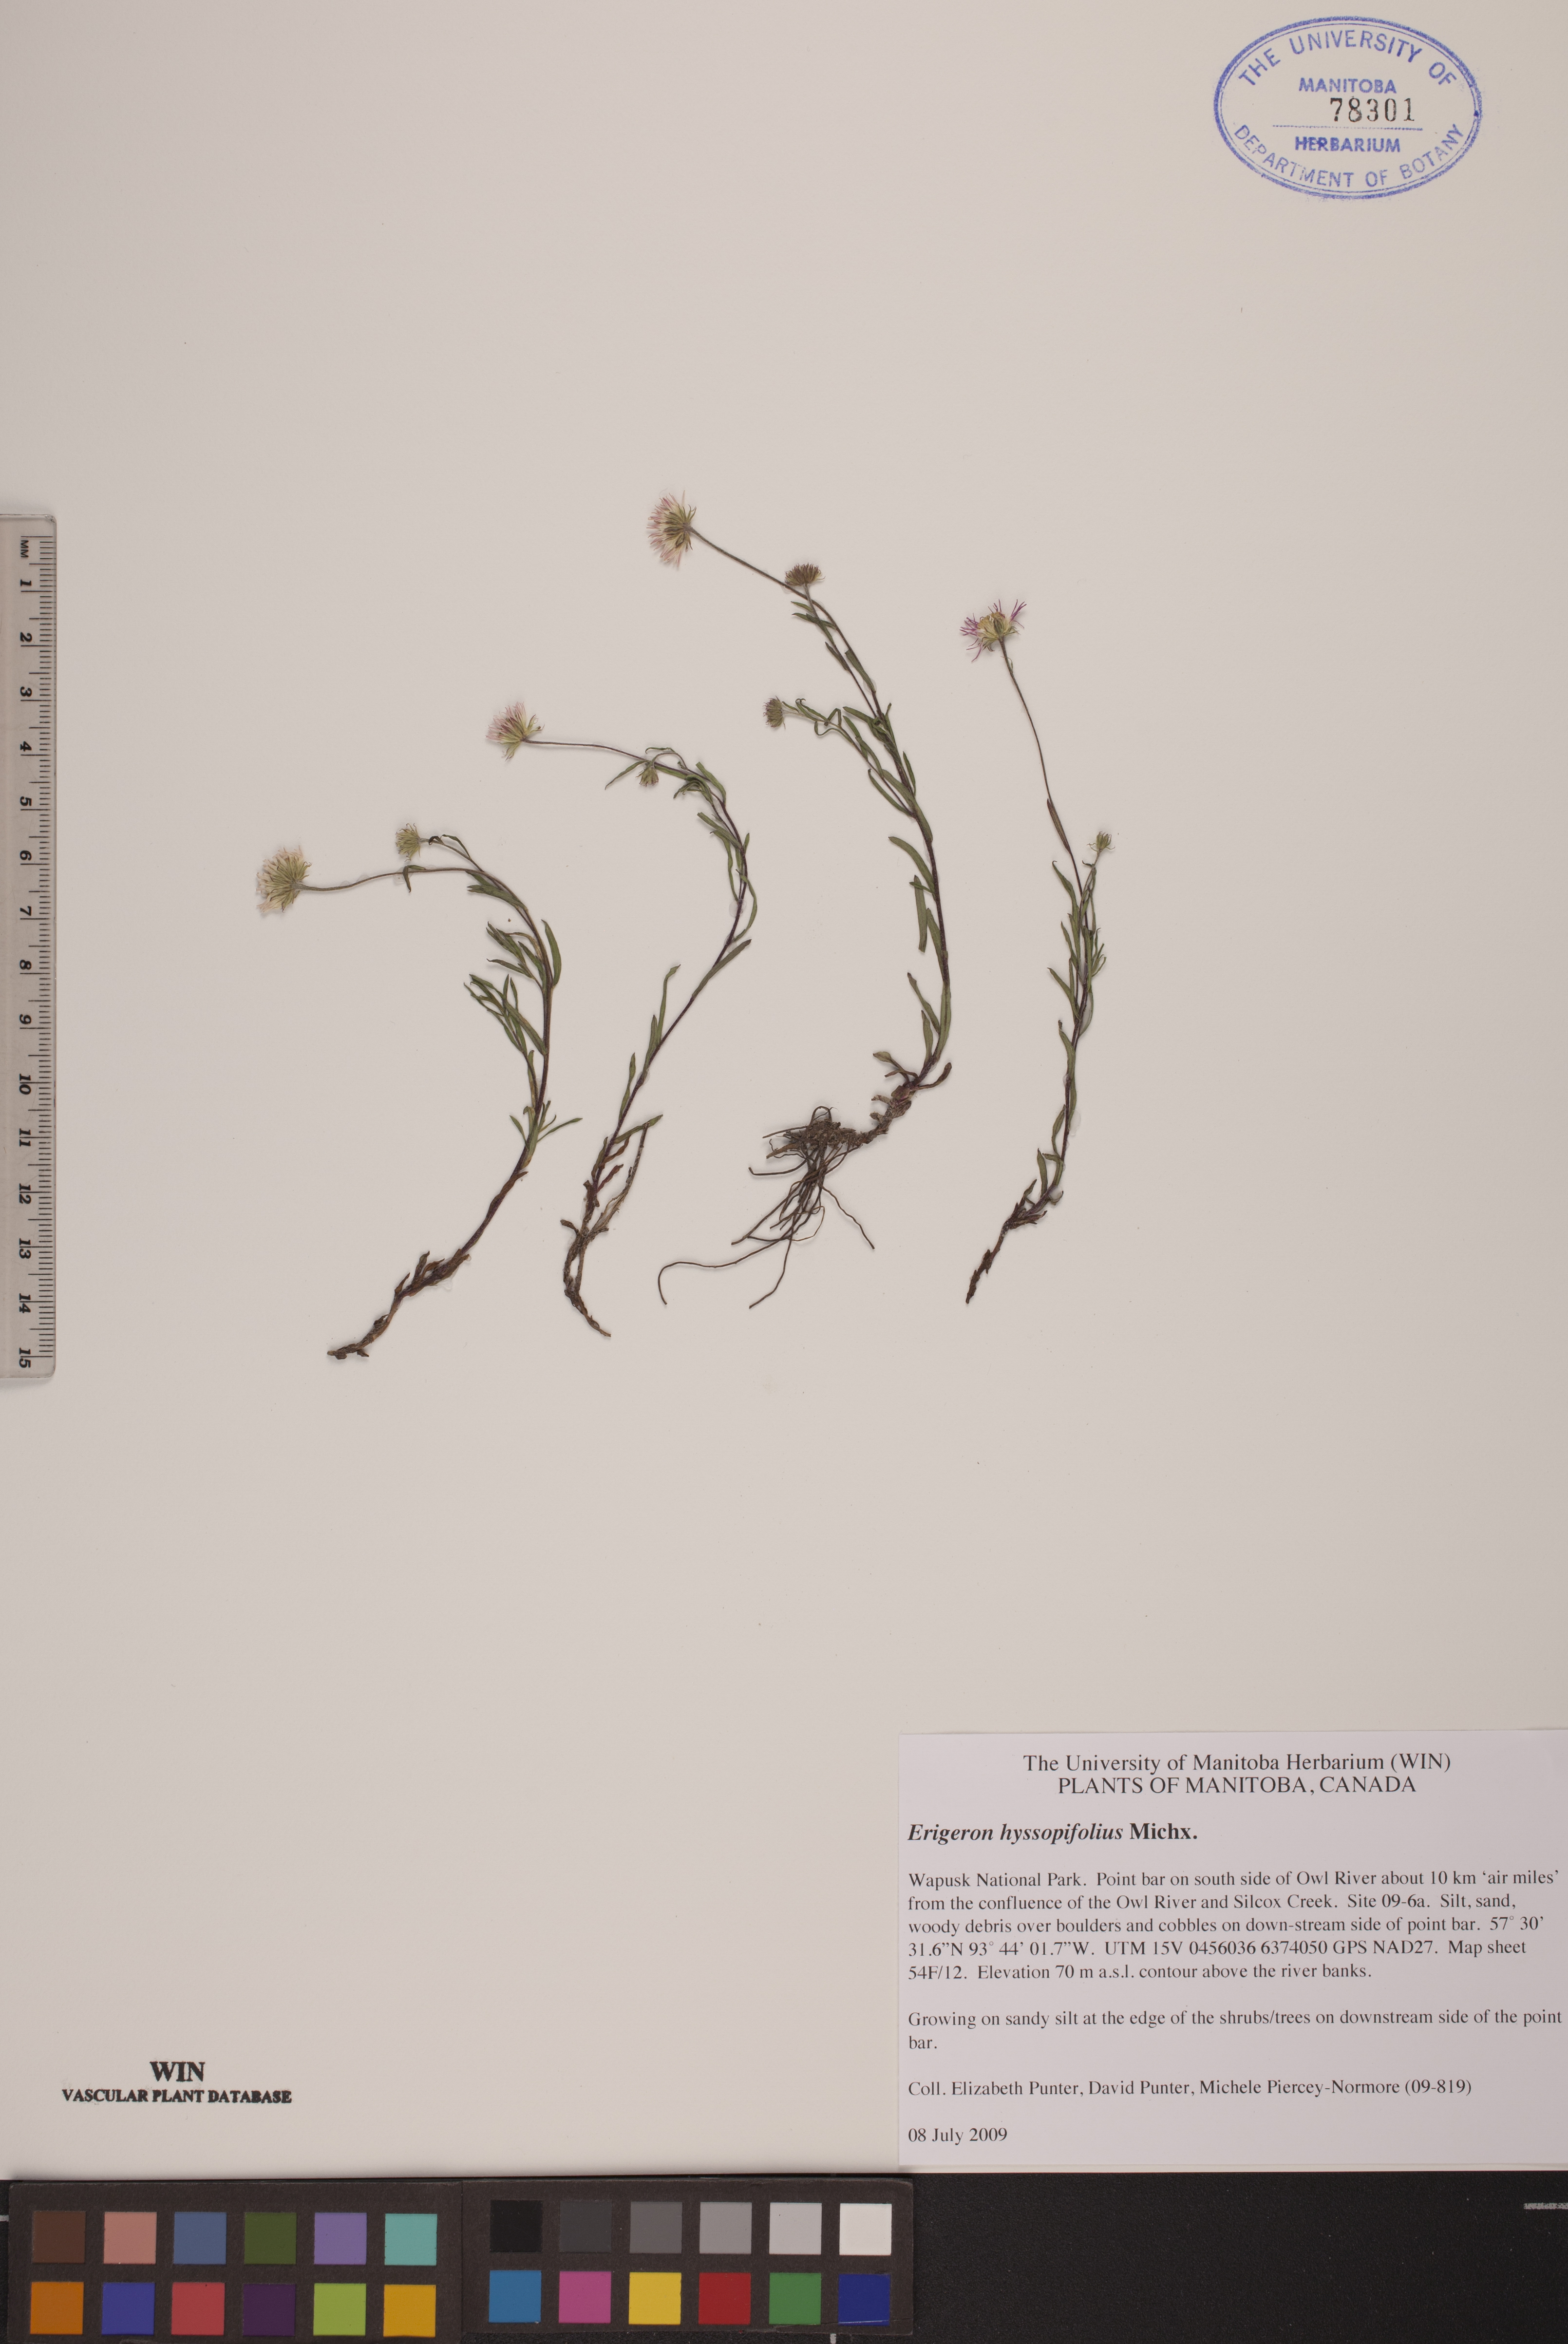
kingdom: Plantae
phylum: Tracheophyta
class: Magnoliopsida
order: Asterales
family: Asteraceae
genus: Erigeron
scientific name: Erigeron hyssopifolius
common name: Daisy fleabane
